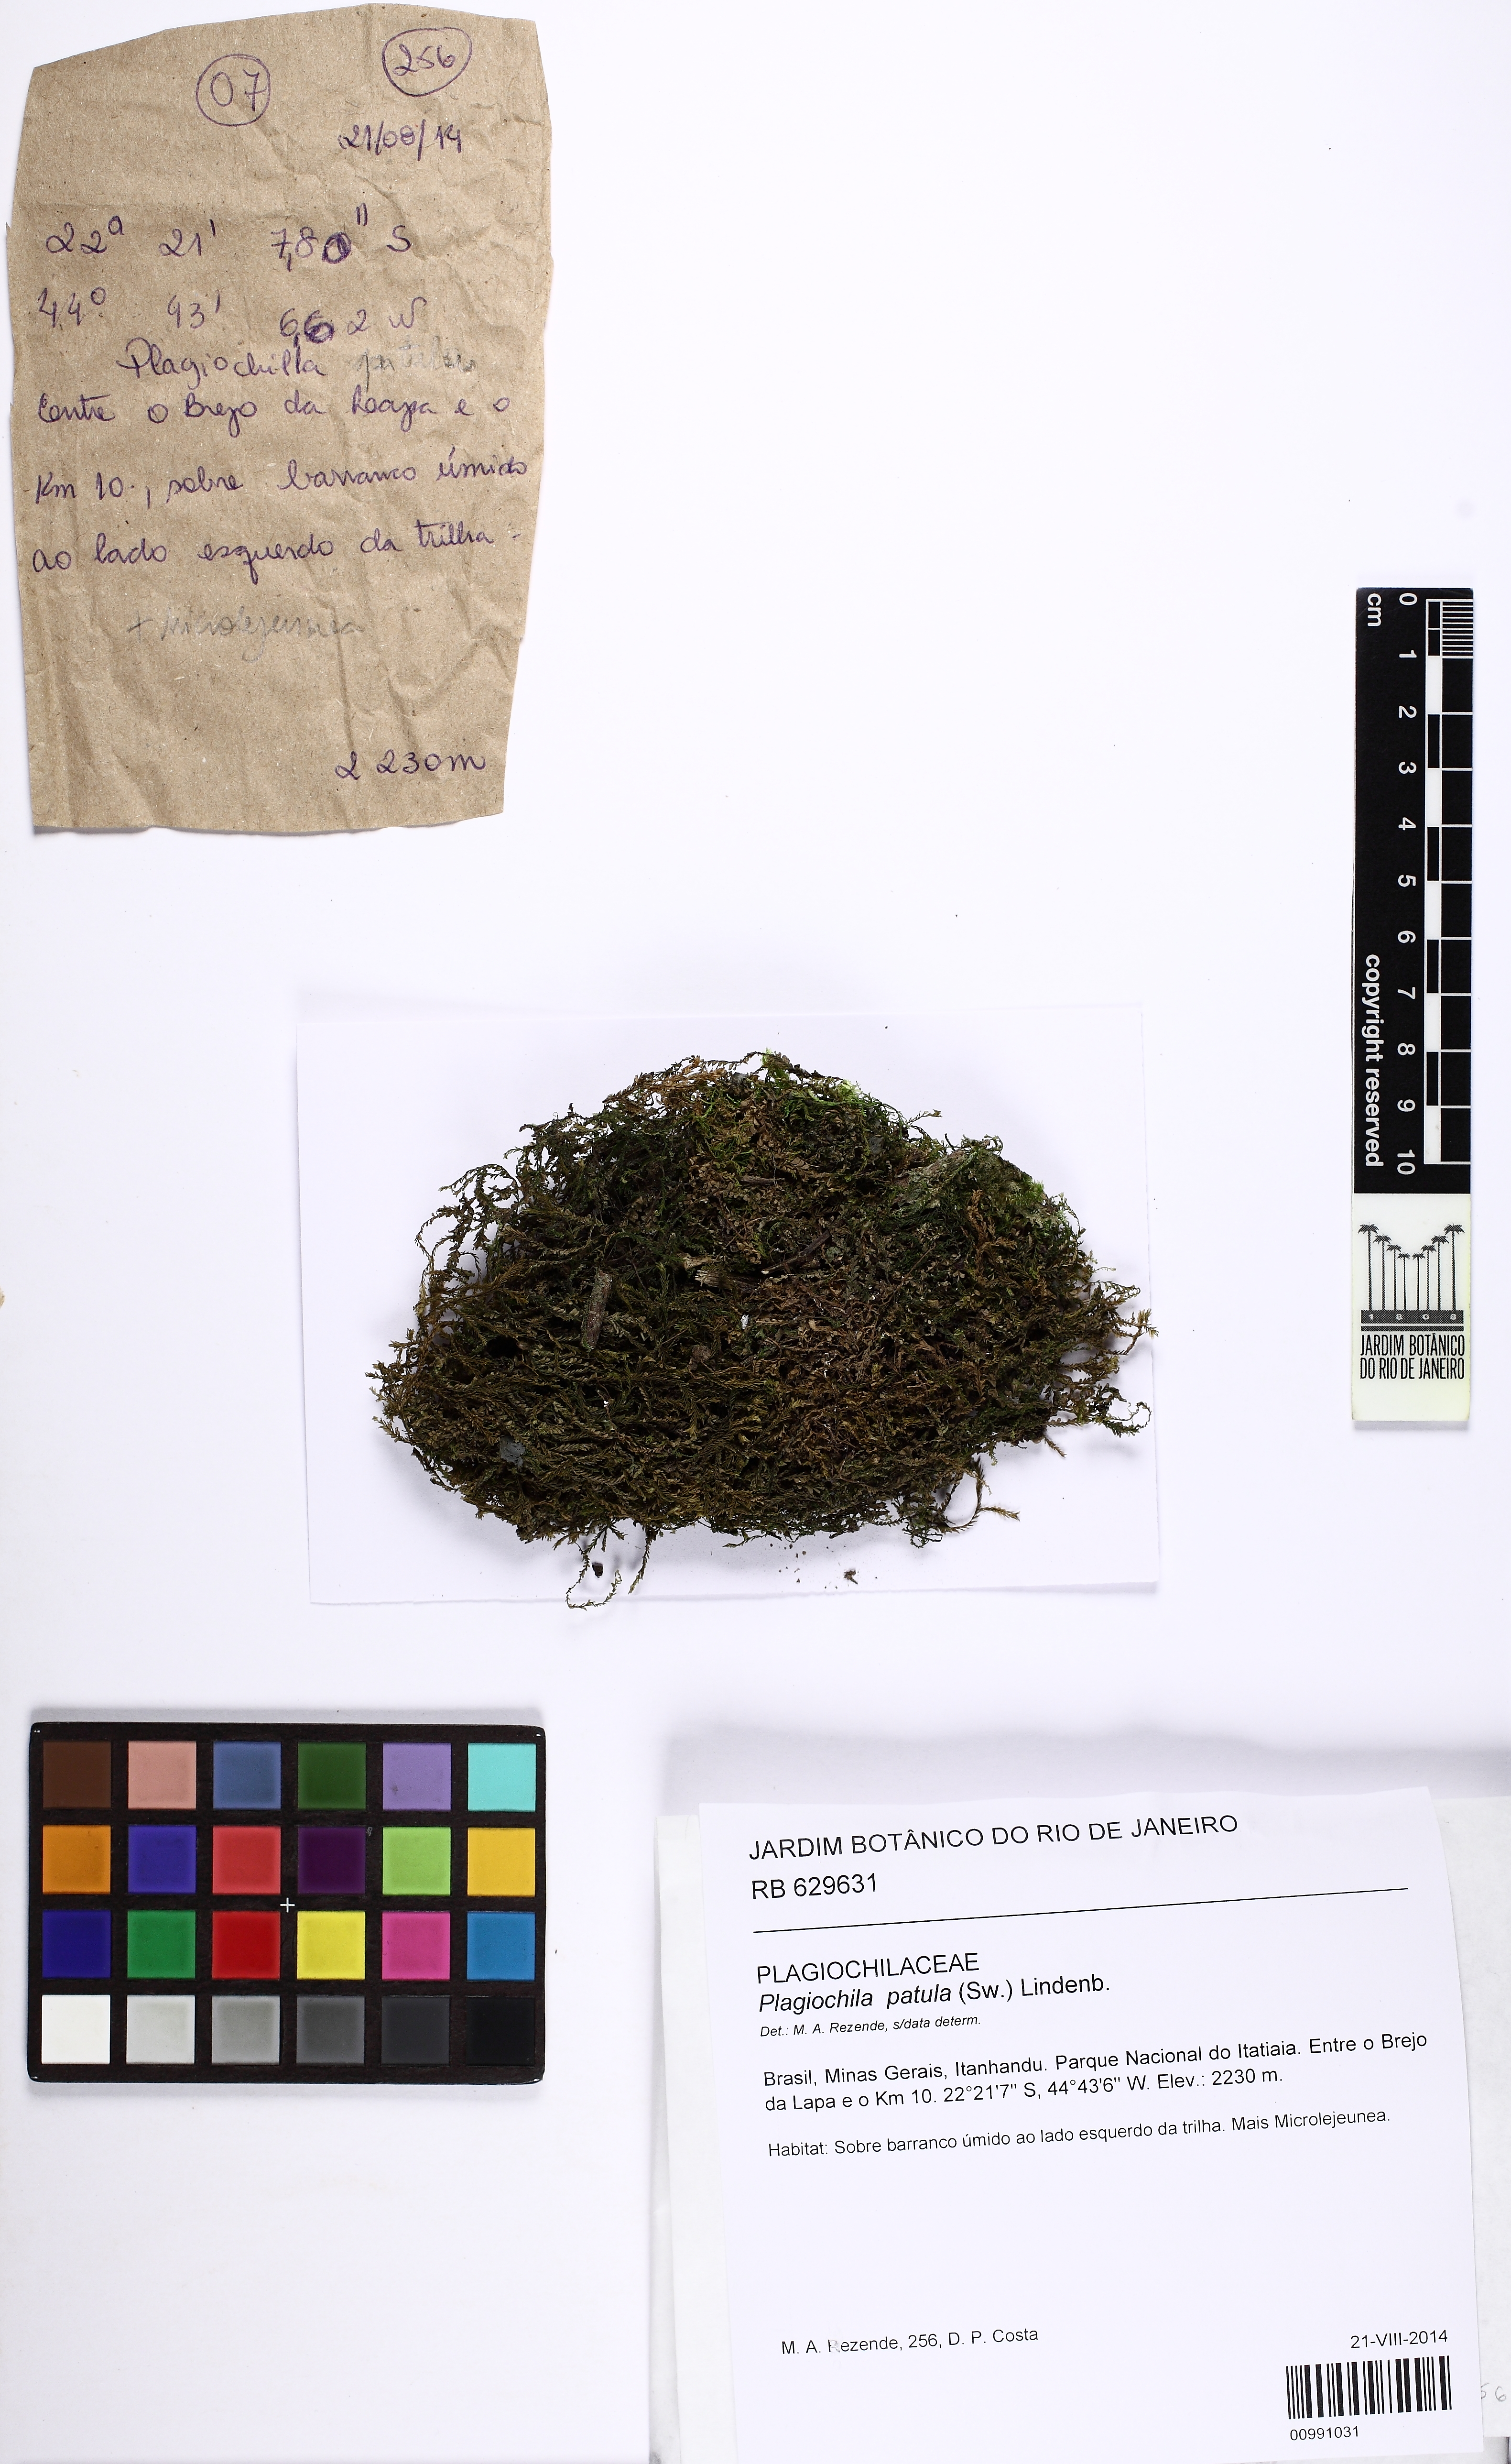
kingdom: Plantae
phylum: Marchantiophyta
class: Jungermanniopsida
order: Jungermanniales
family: Plagiochilaceae
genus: Plagiochila
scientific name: Plagiochila patula
